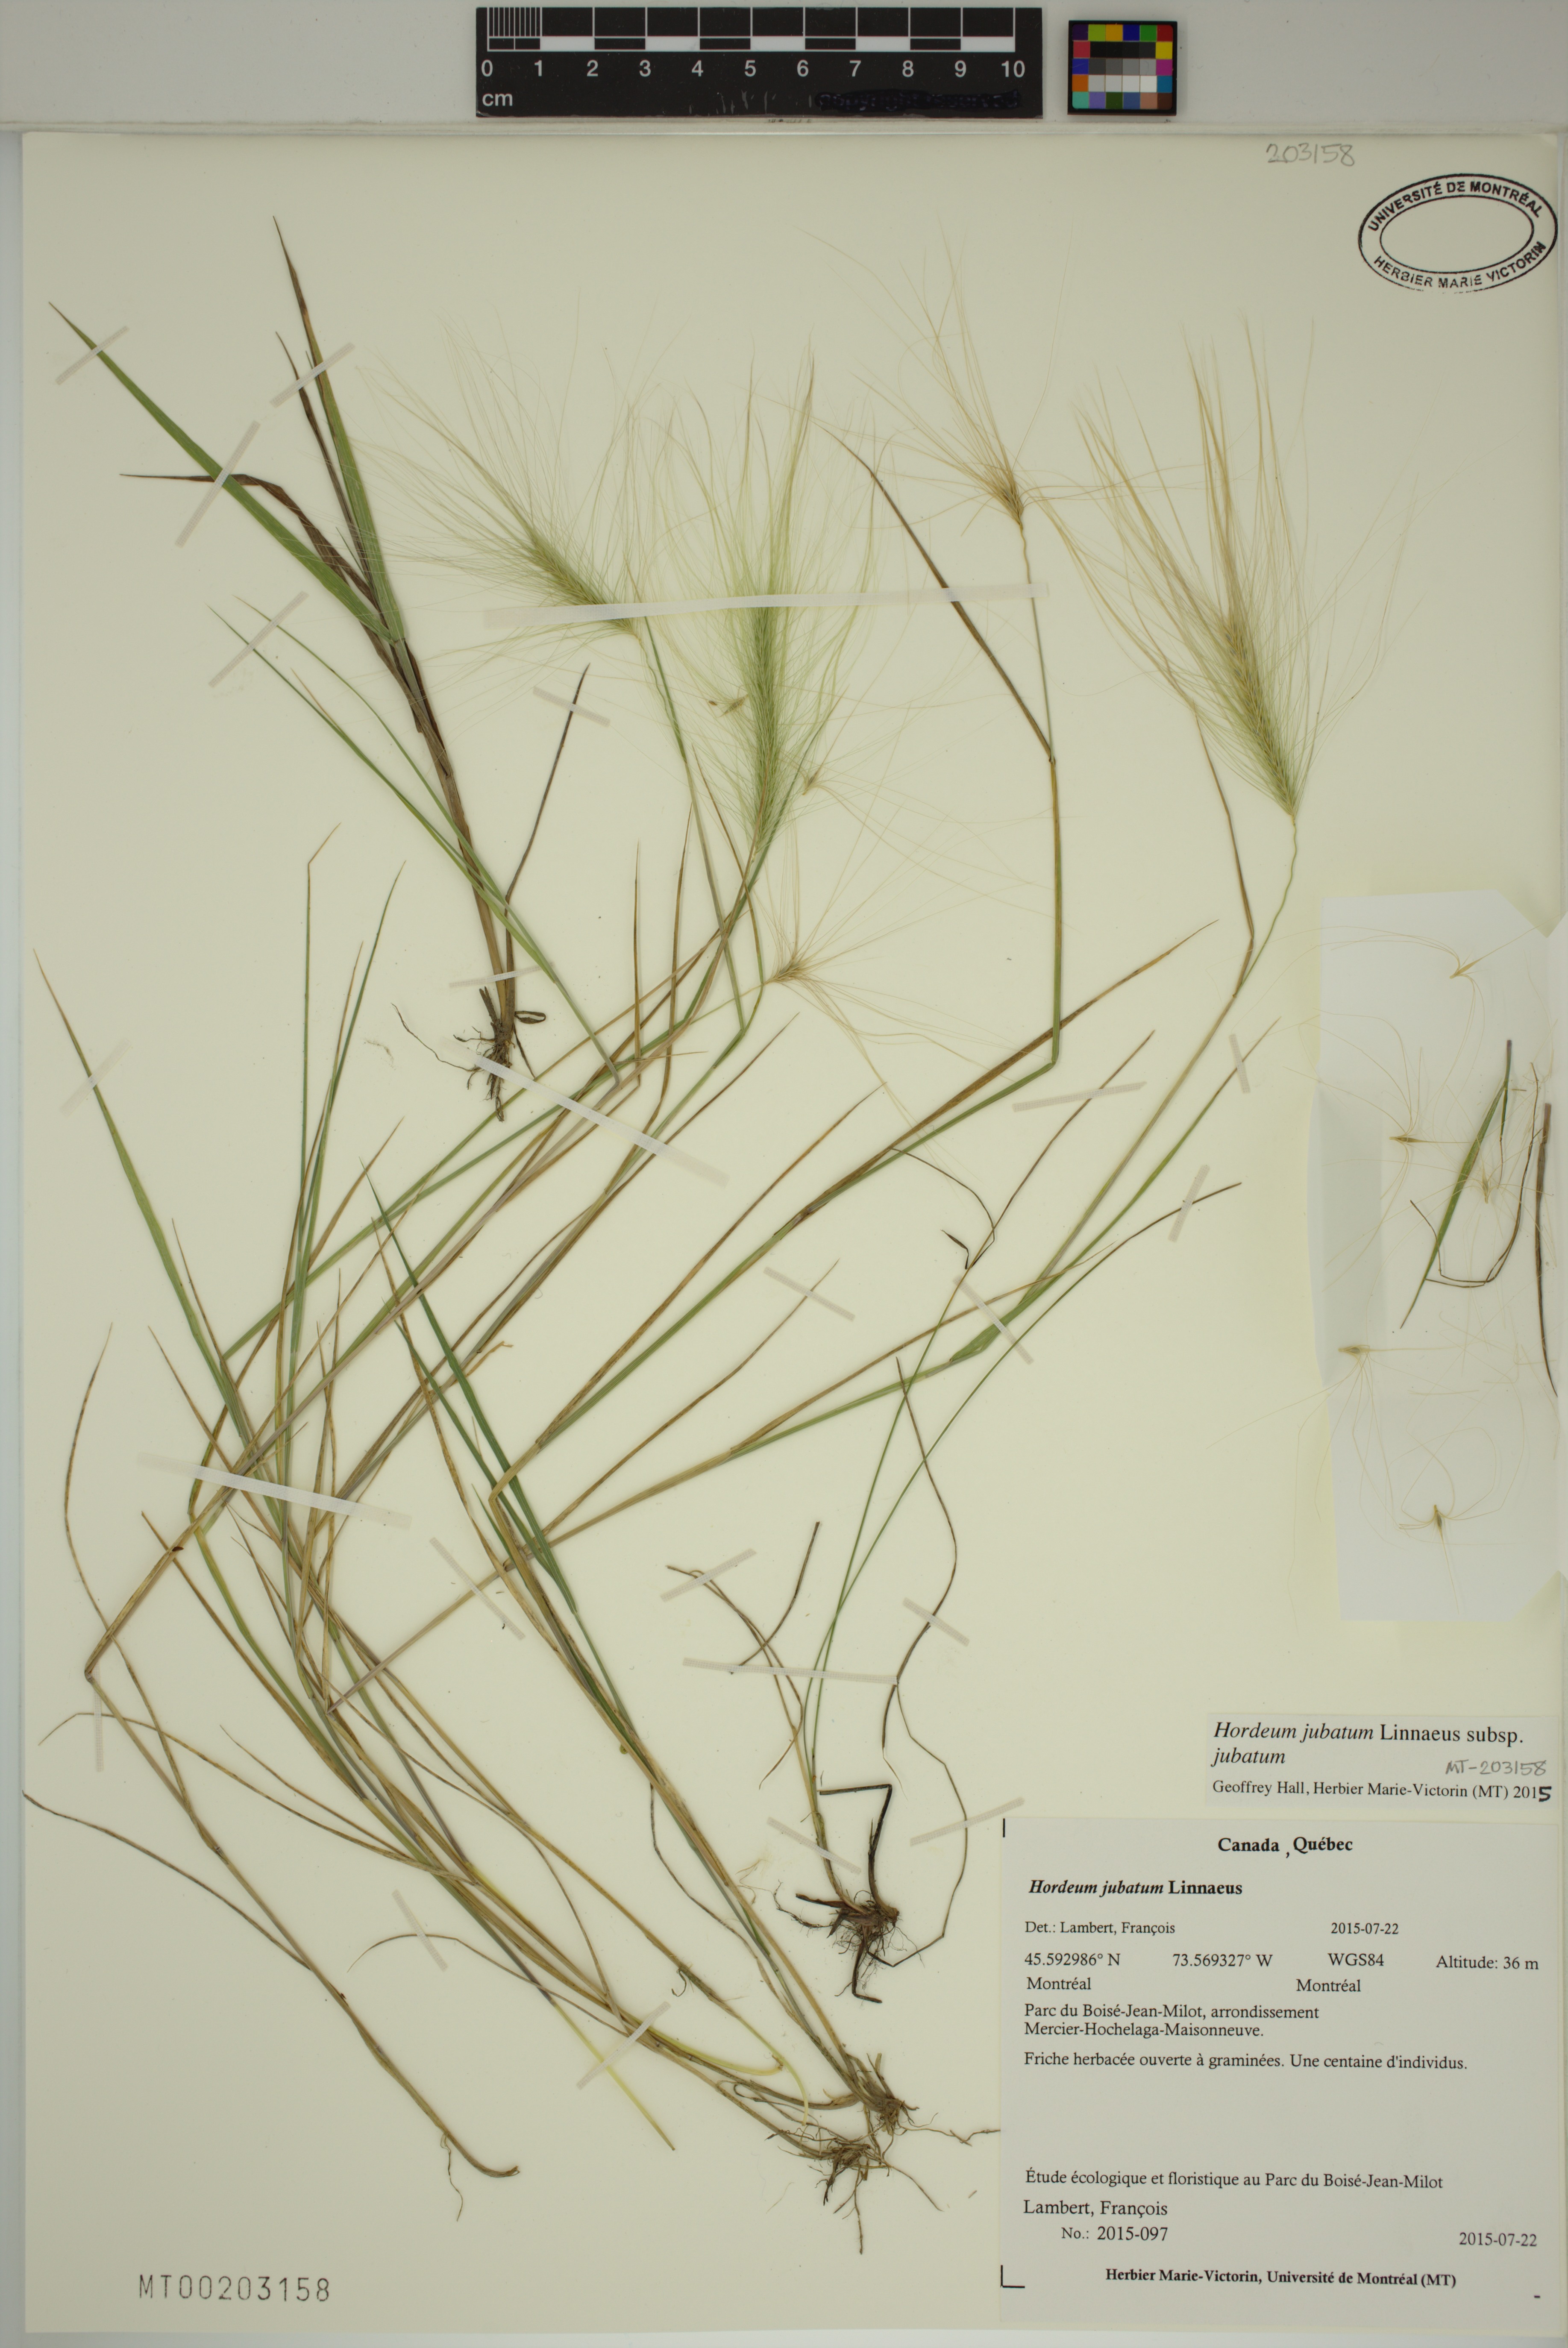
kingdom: Plantae
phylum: Tracheophyta
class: Liliopsida
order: Poales
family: Poaceae
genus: Hordeum
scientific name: Hordeum jubatum
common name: Foxtail barley
